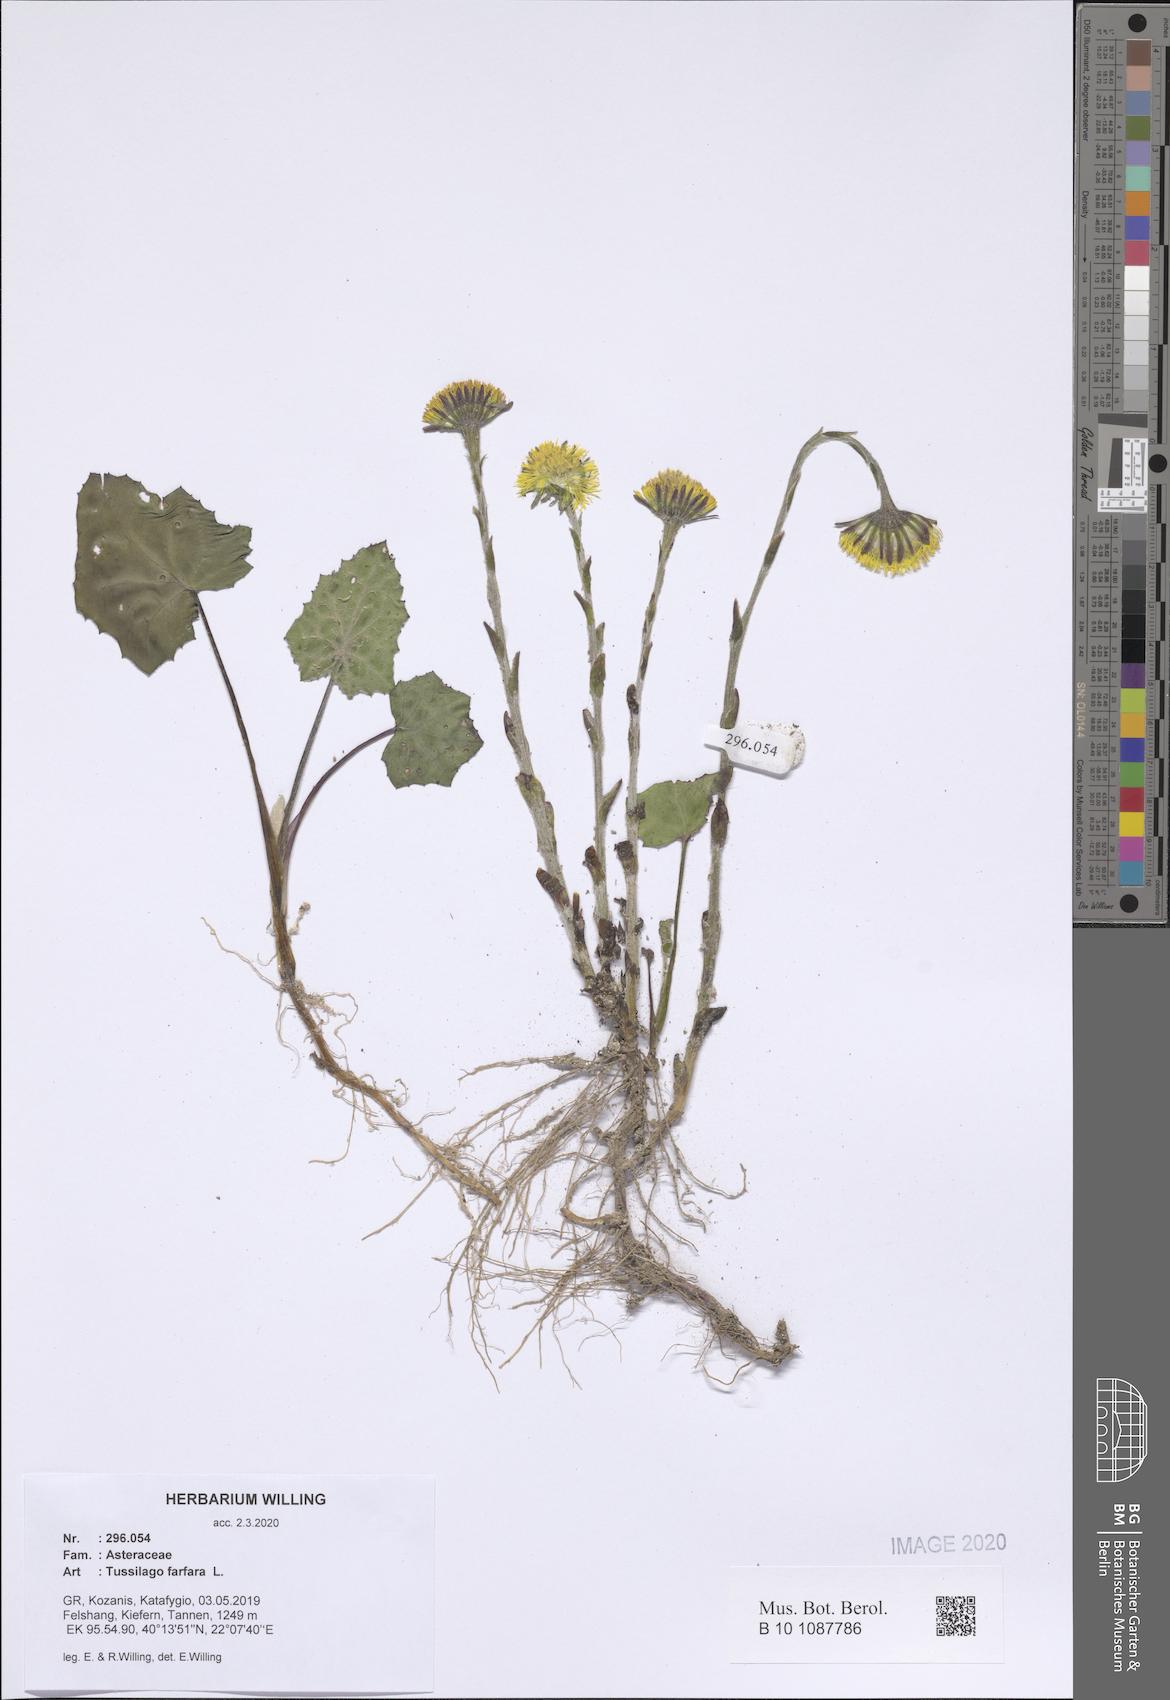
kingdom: Plantae
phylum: Tracheophyta
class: Magnoliopsida
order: Asterales
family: Asteraceae
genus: Tussilago
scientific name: Tussilago farfara
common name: Coltsfoot
